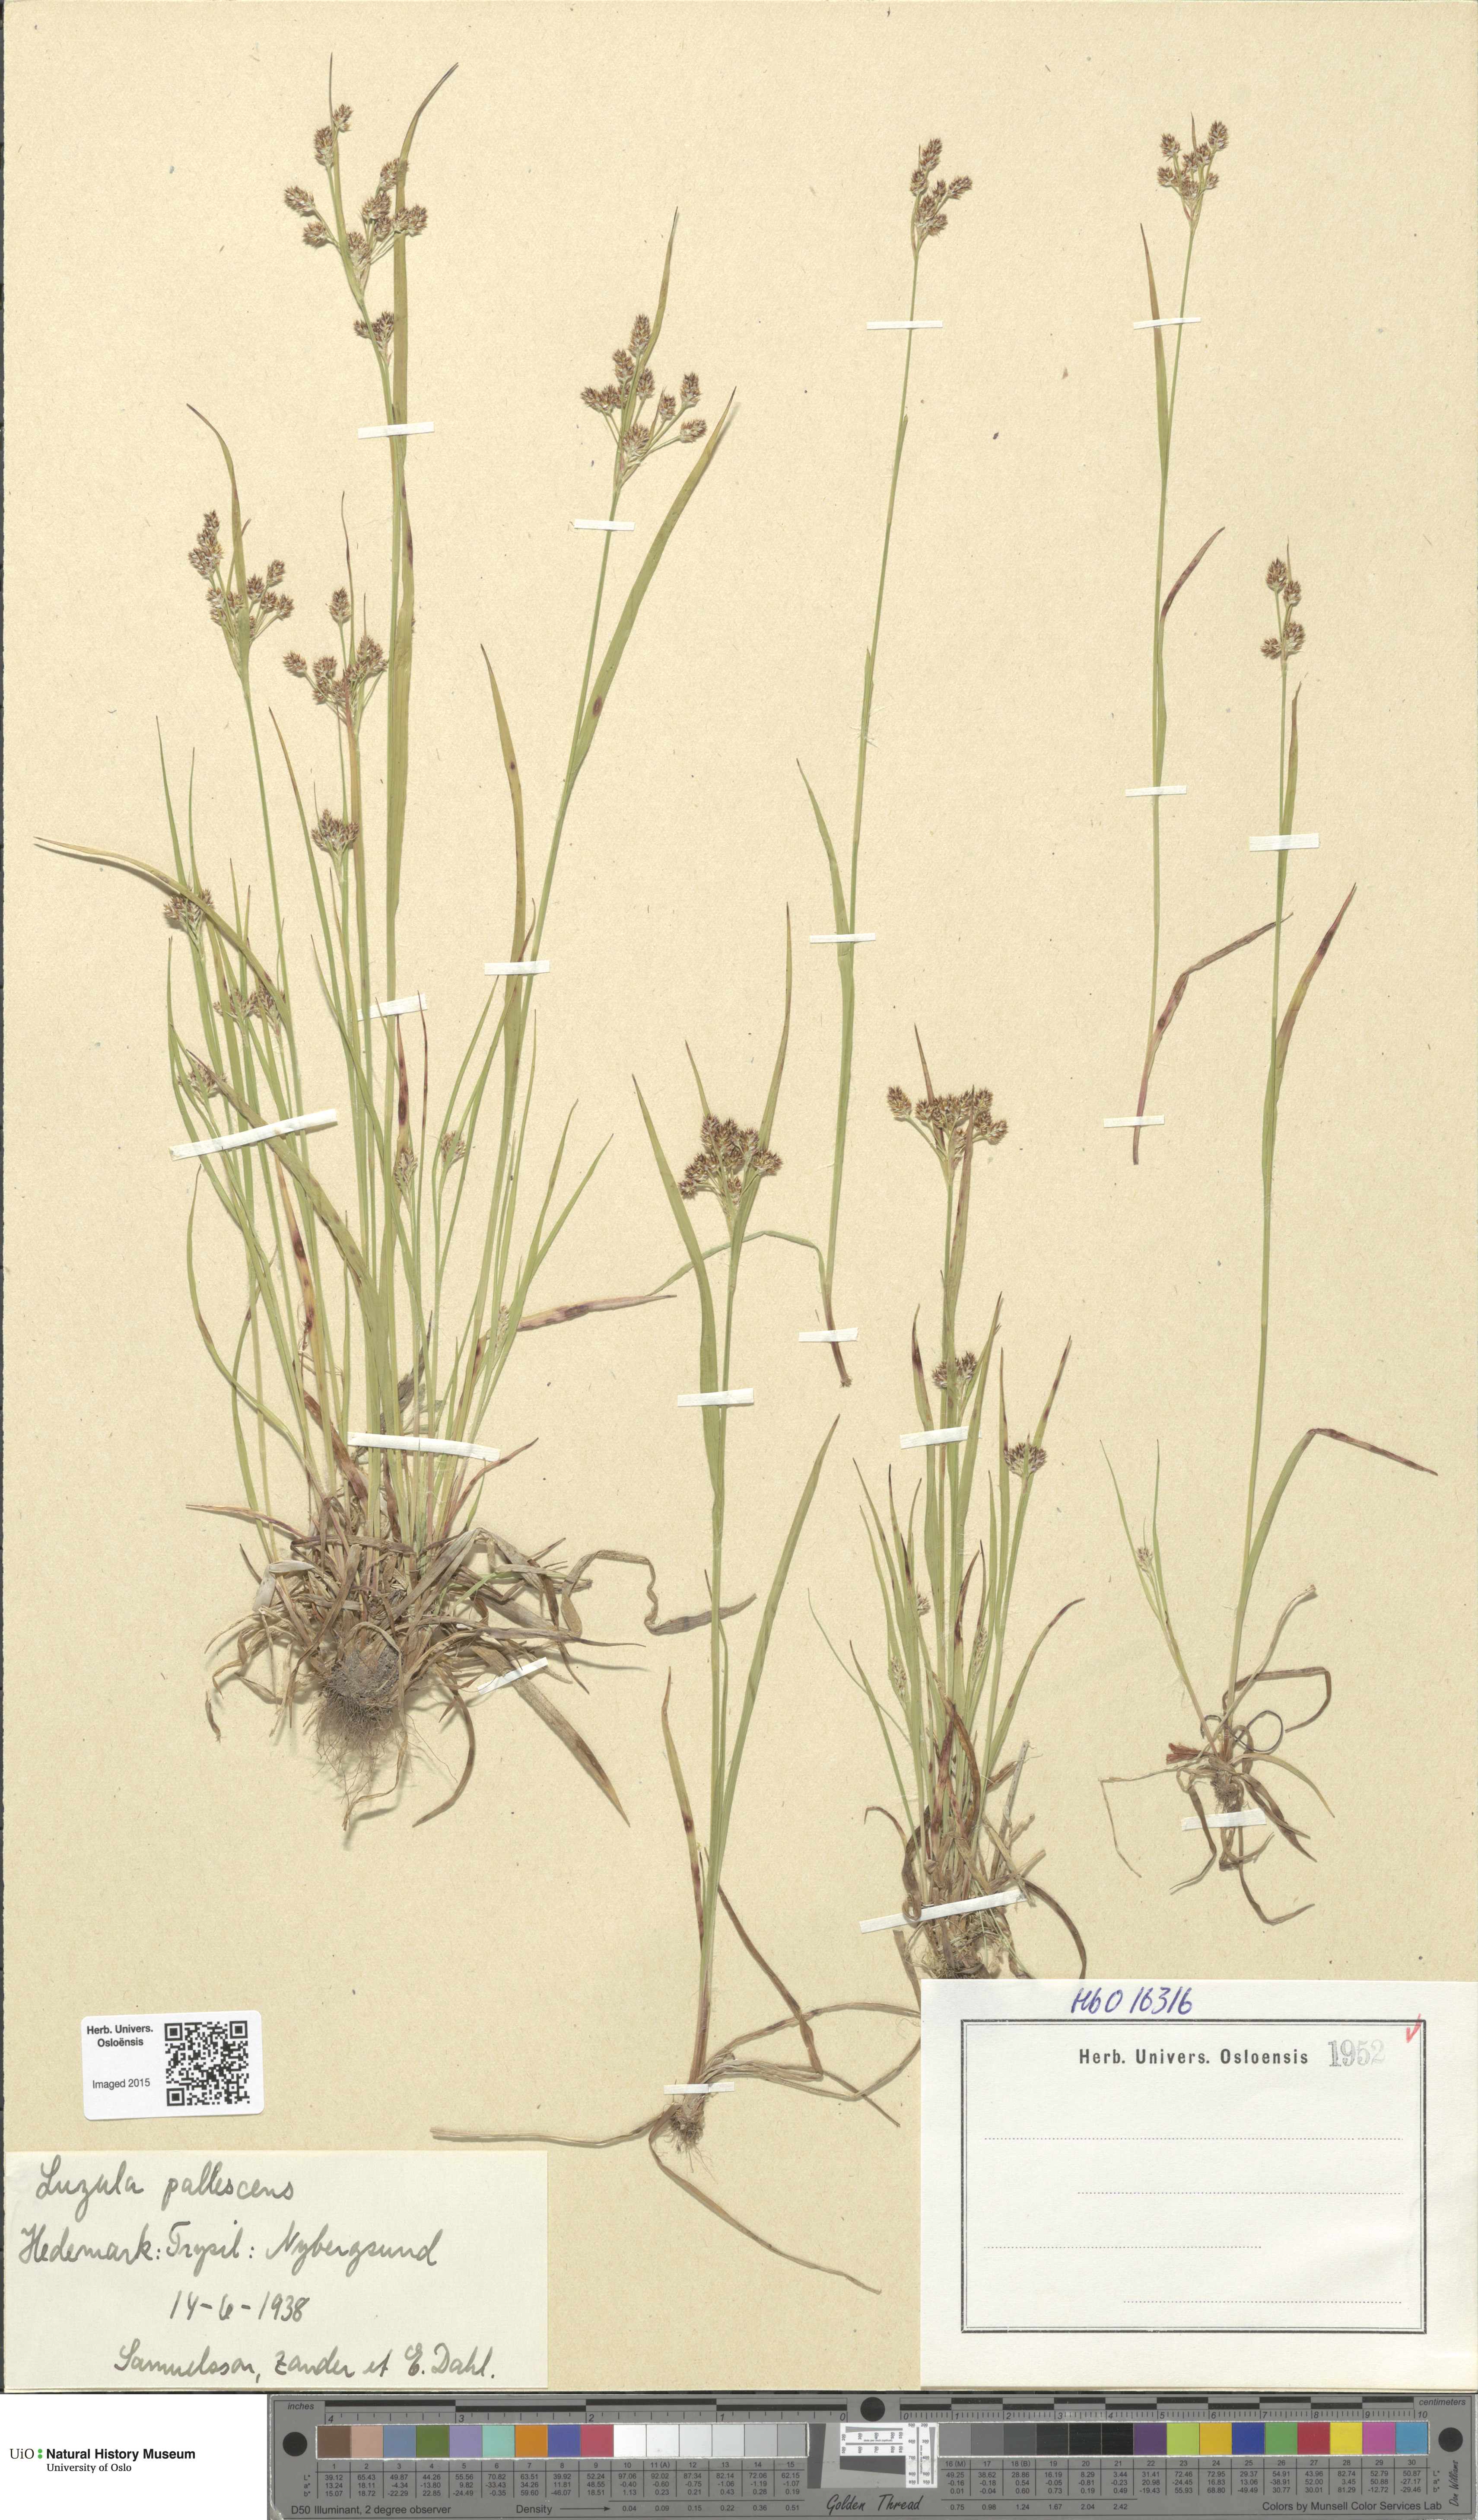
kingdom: Plantae
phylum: Tracheophyta
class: Liliopsida
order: Poales
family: Juncaceae
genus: Luzula
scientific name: Luzula pallescens
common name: Fen wood-rush
